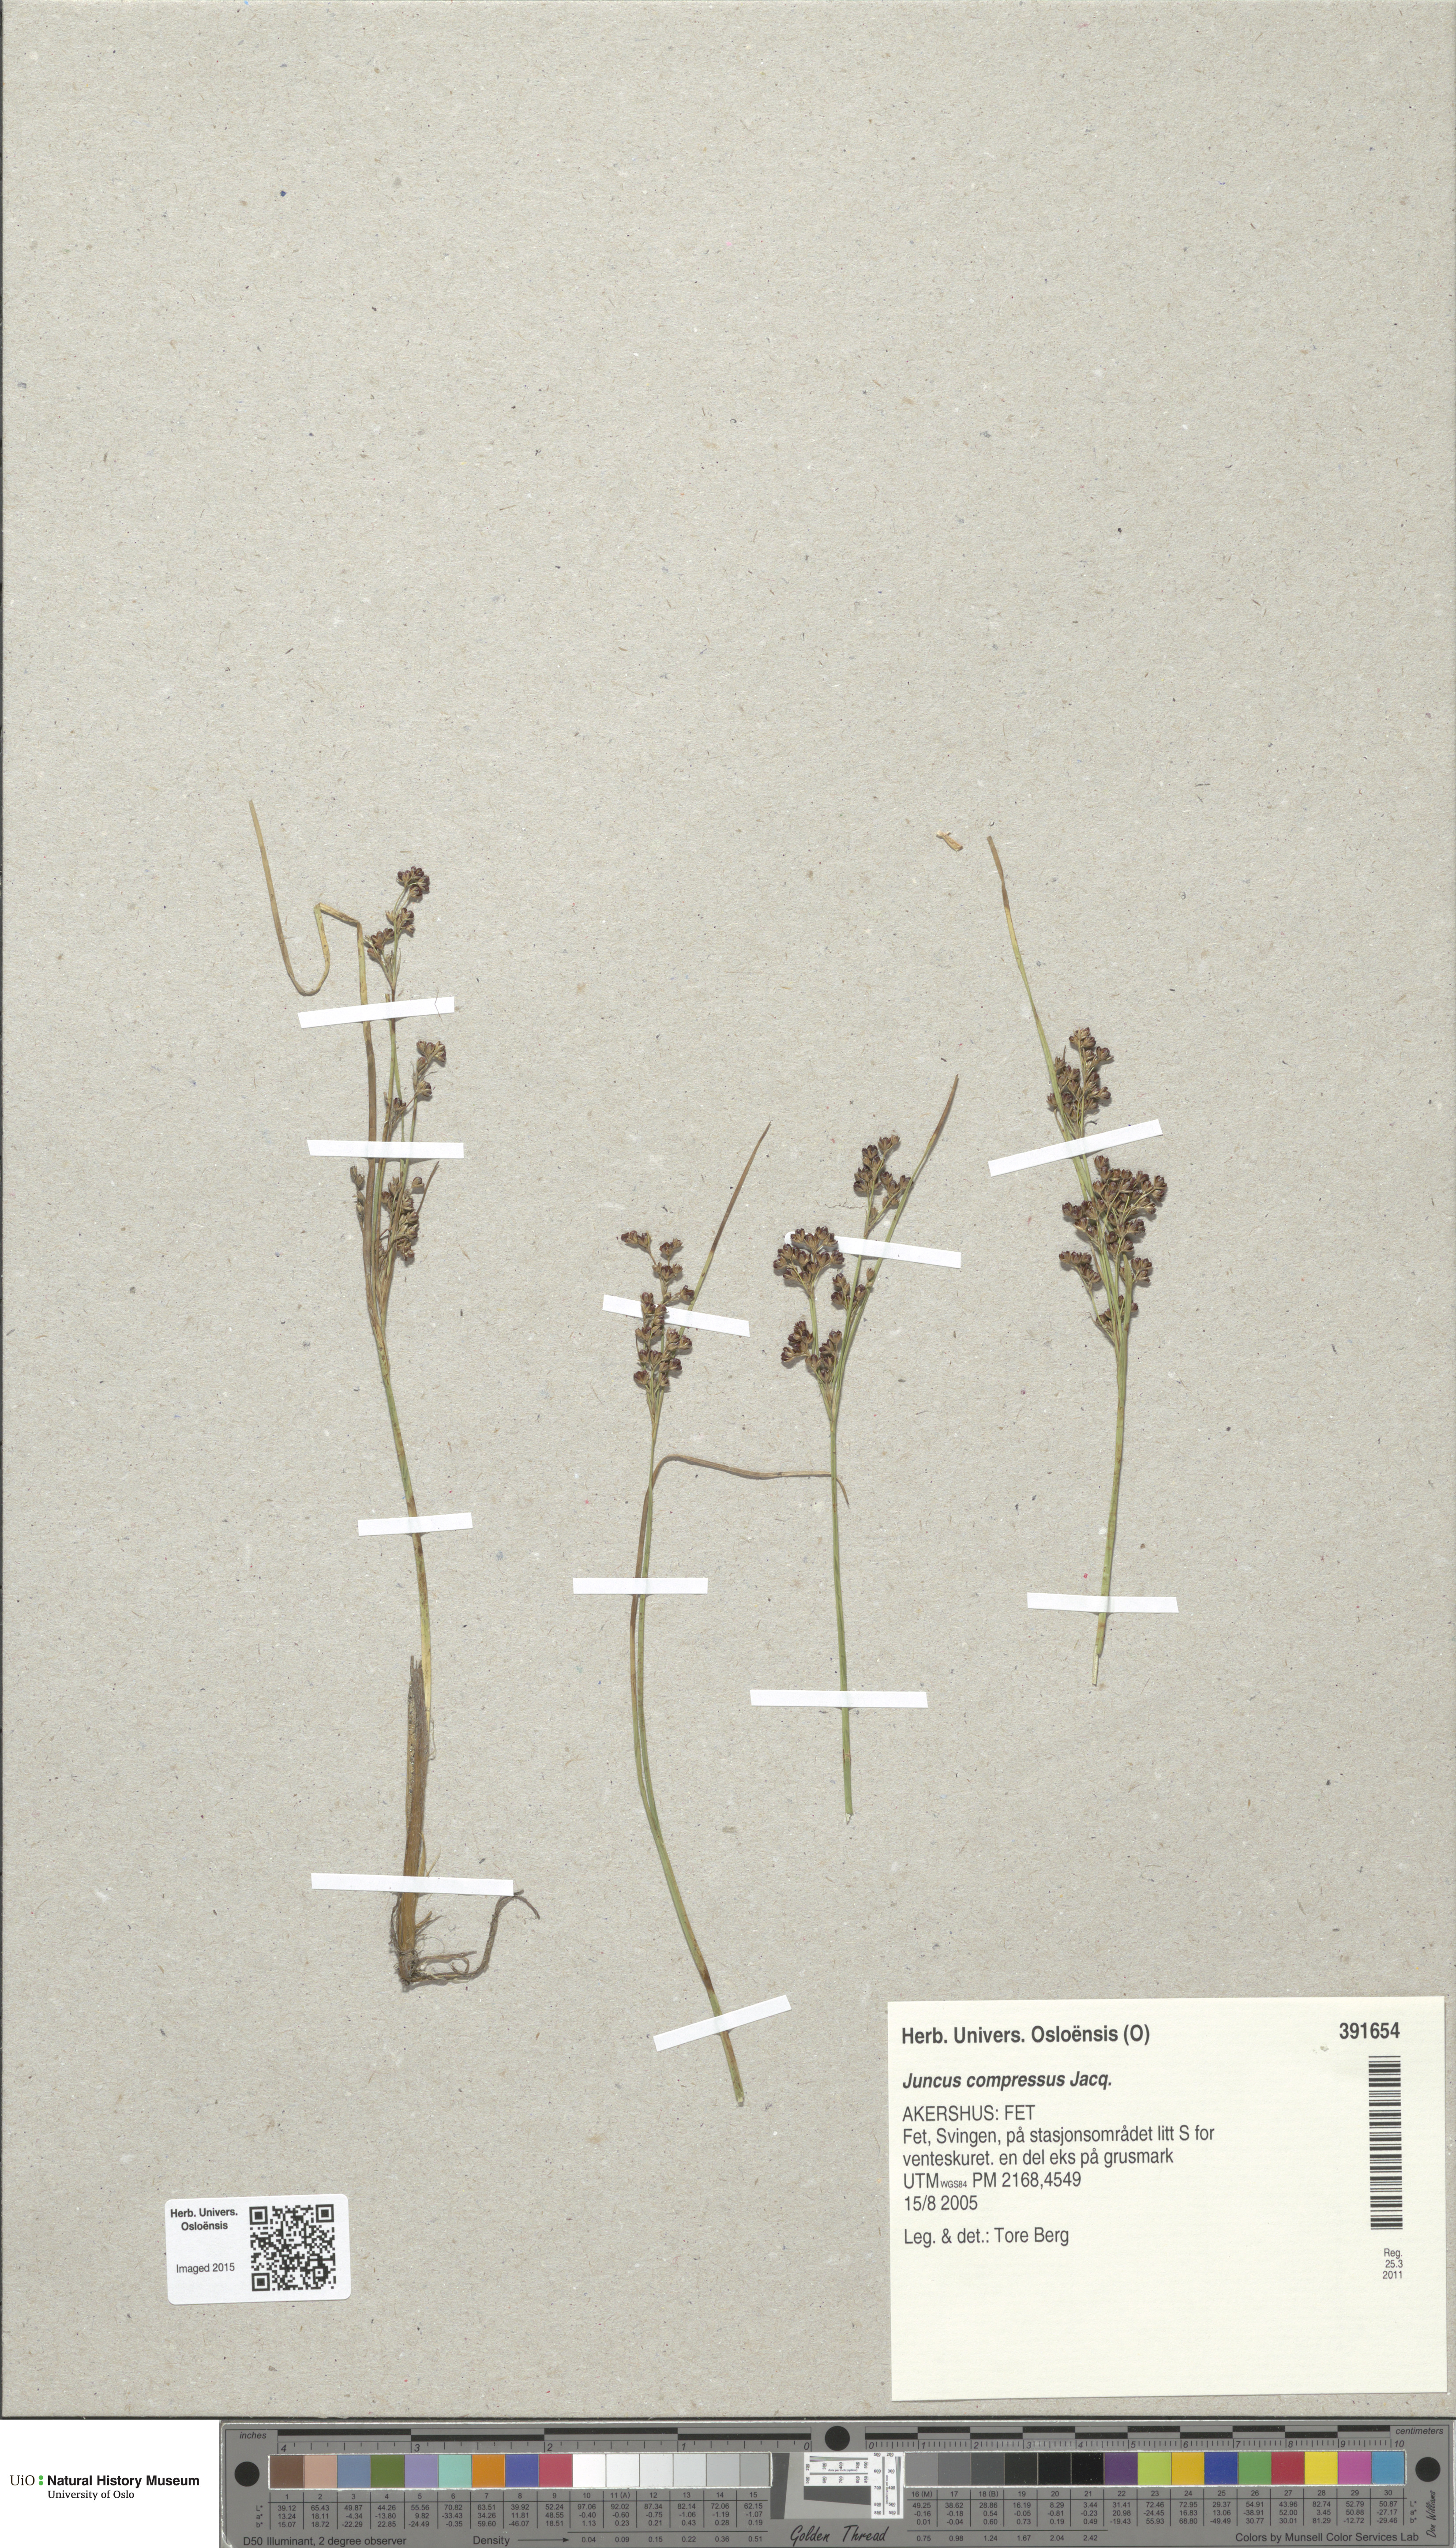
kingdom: Plantae
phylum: Tracheophyta
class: Liliopsida
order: Poales
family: Juncaceae
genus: Juncus
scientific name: Juncus compressus
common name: Round-fruited rush
